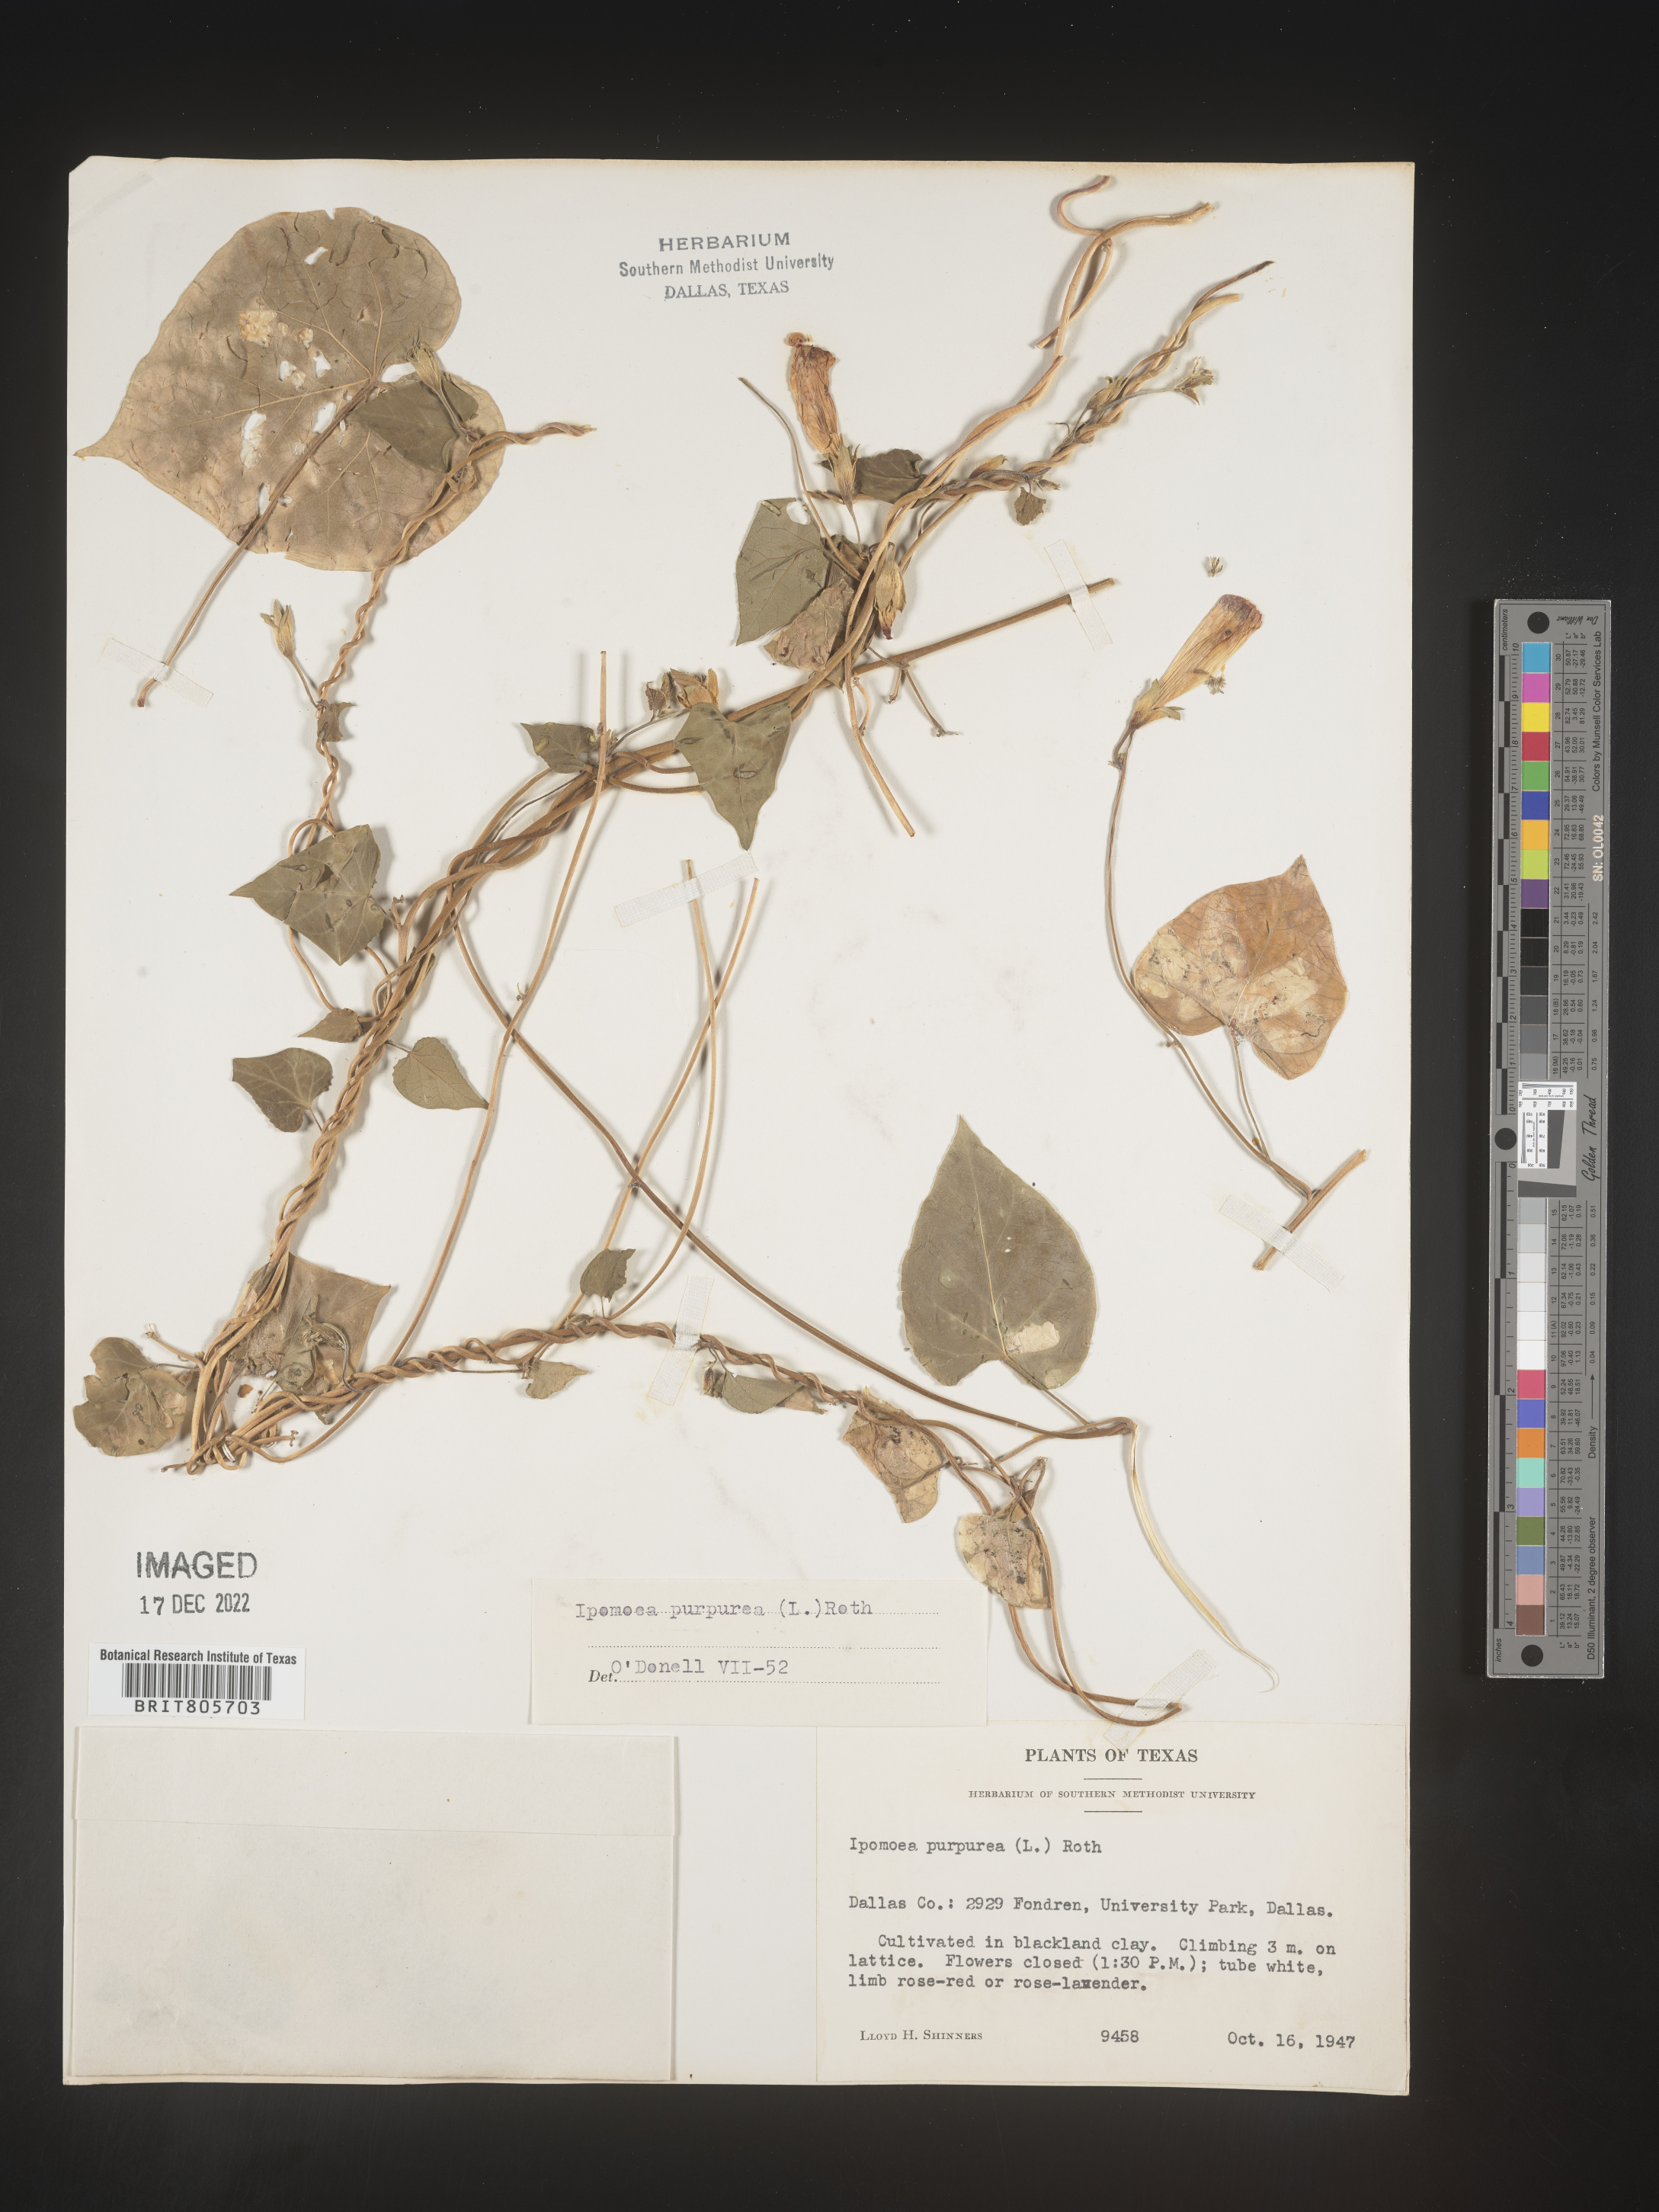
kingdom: Plantae
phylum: Tracheophyta
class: Magnoliopsida
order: Solanales
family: Convolvulaceae
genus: Ipomoea
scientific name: Ipomoea purpurea
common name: Common morning-glory
